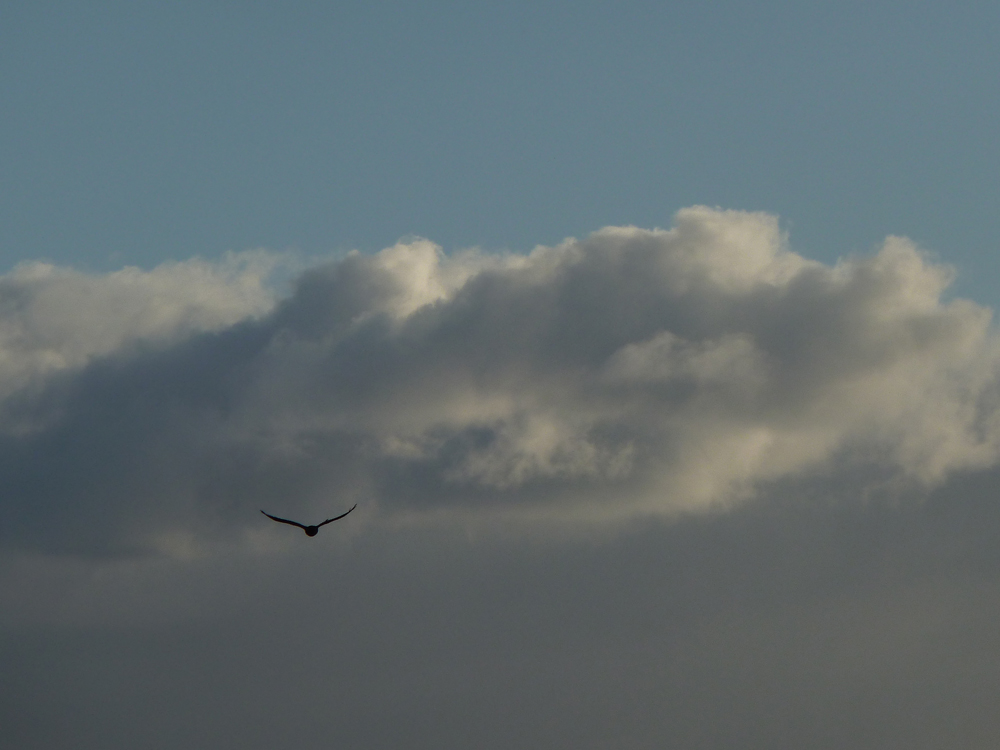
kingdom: Animalia
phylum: Chordata
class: Aves
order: Passeriformes
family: Corvidae
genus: Corvus
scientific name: Corvus corax
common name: Common raven
